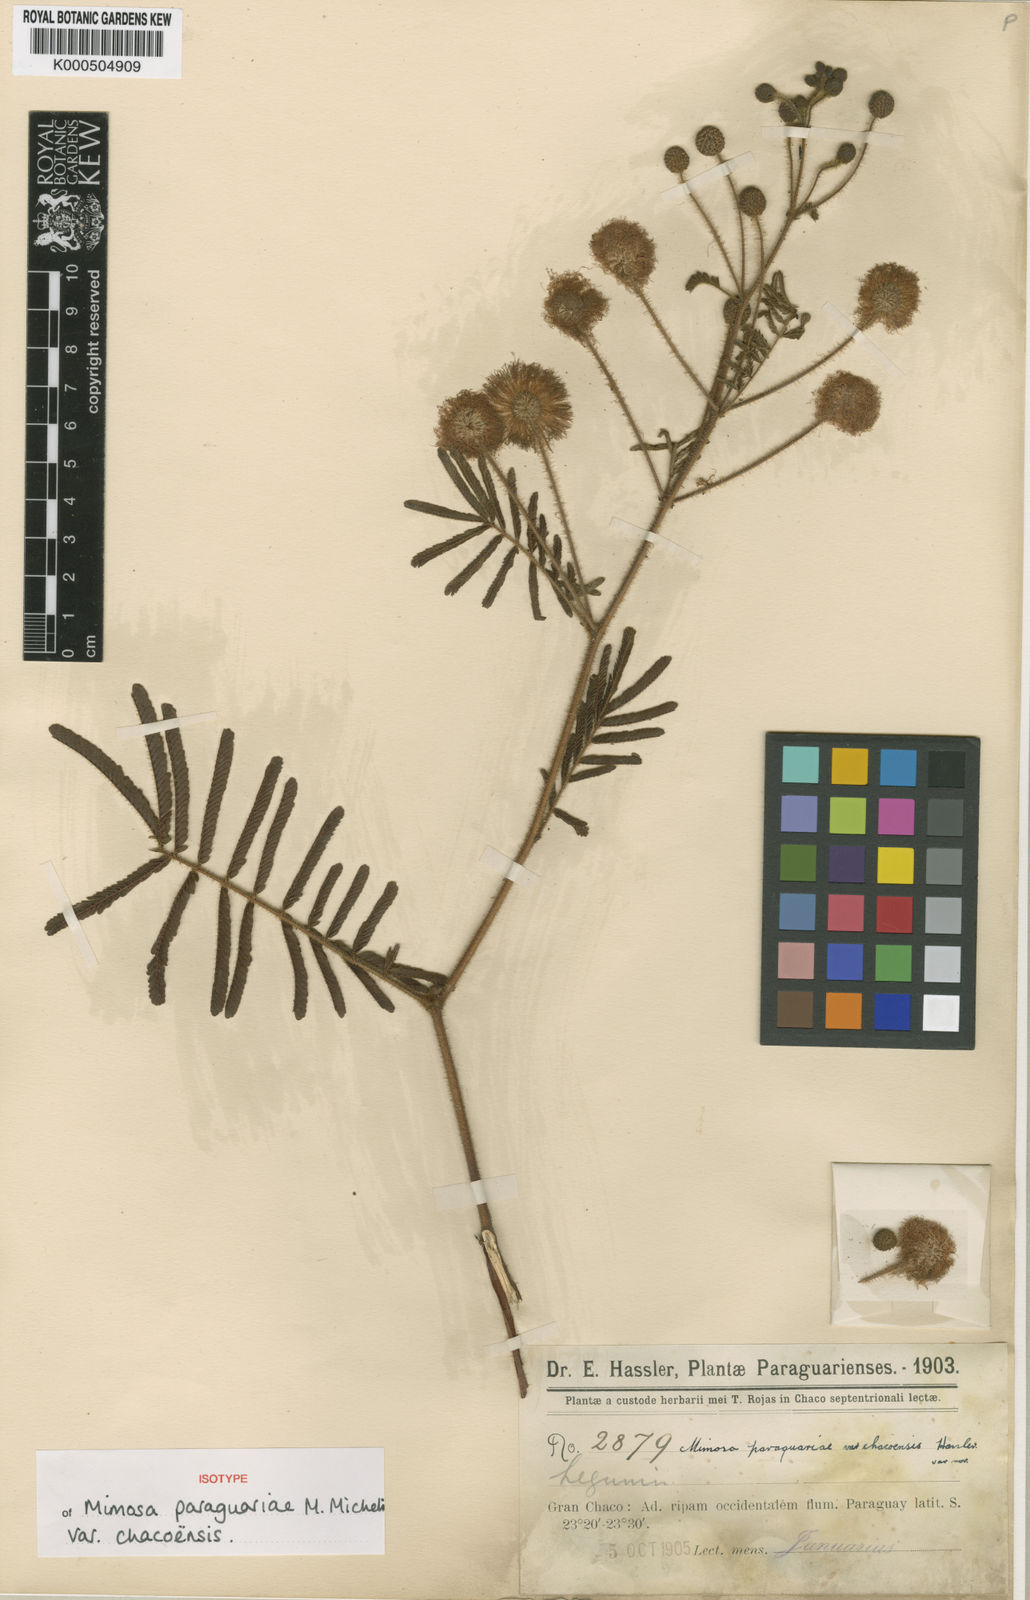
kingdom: Plantae
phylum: Tracheophyta
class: Magnoliopsida
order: Fabales
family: Fabaceae
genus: Mimosa
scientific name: Mimosa paraguariae
